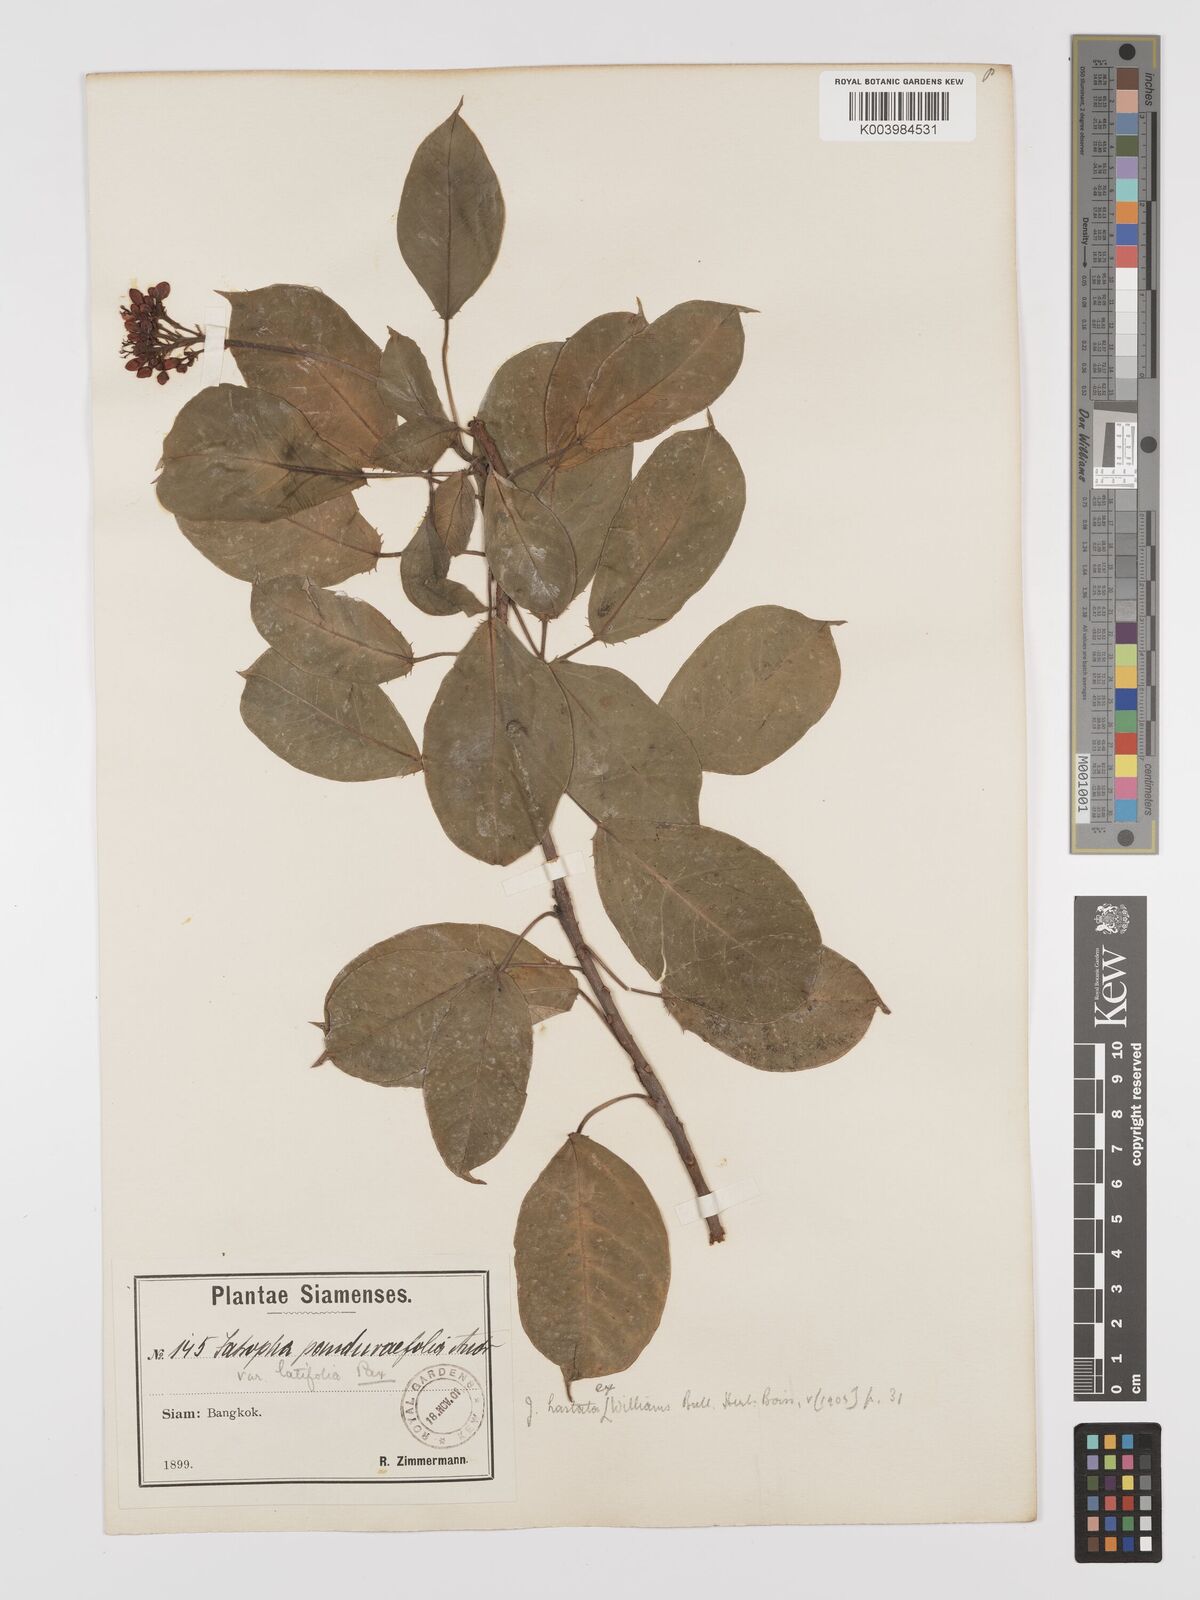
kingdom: Plantae
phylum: Tracheophyta
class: Magnoliopsida
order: Malpighiales
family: Euphorbiaceae
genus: Jatropha
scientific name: Jatropha integerrima
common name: Peregrina
